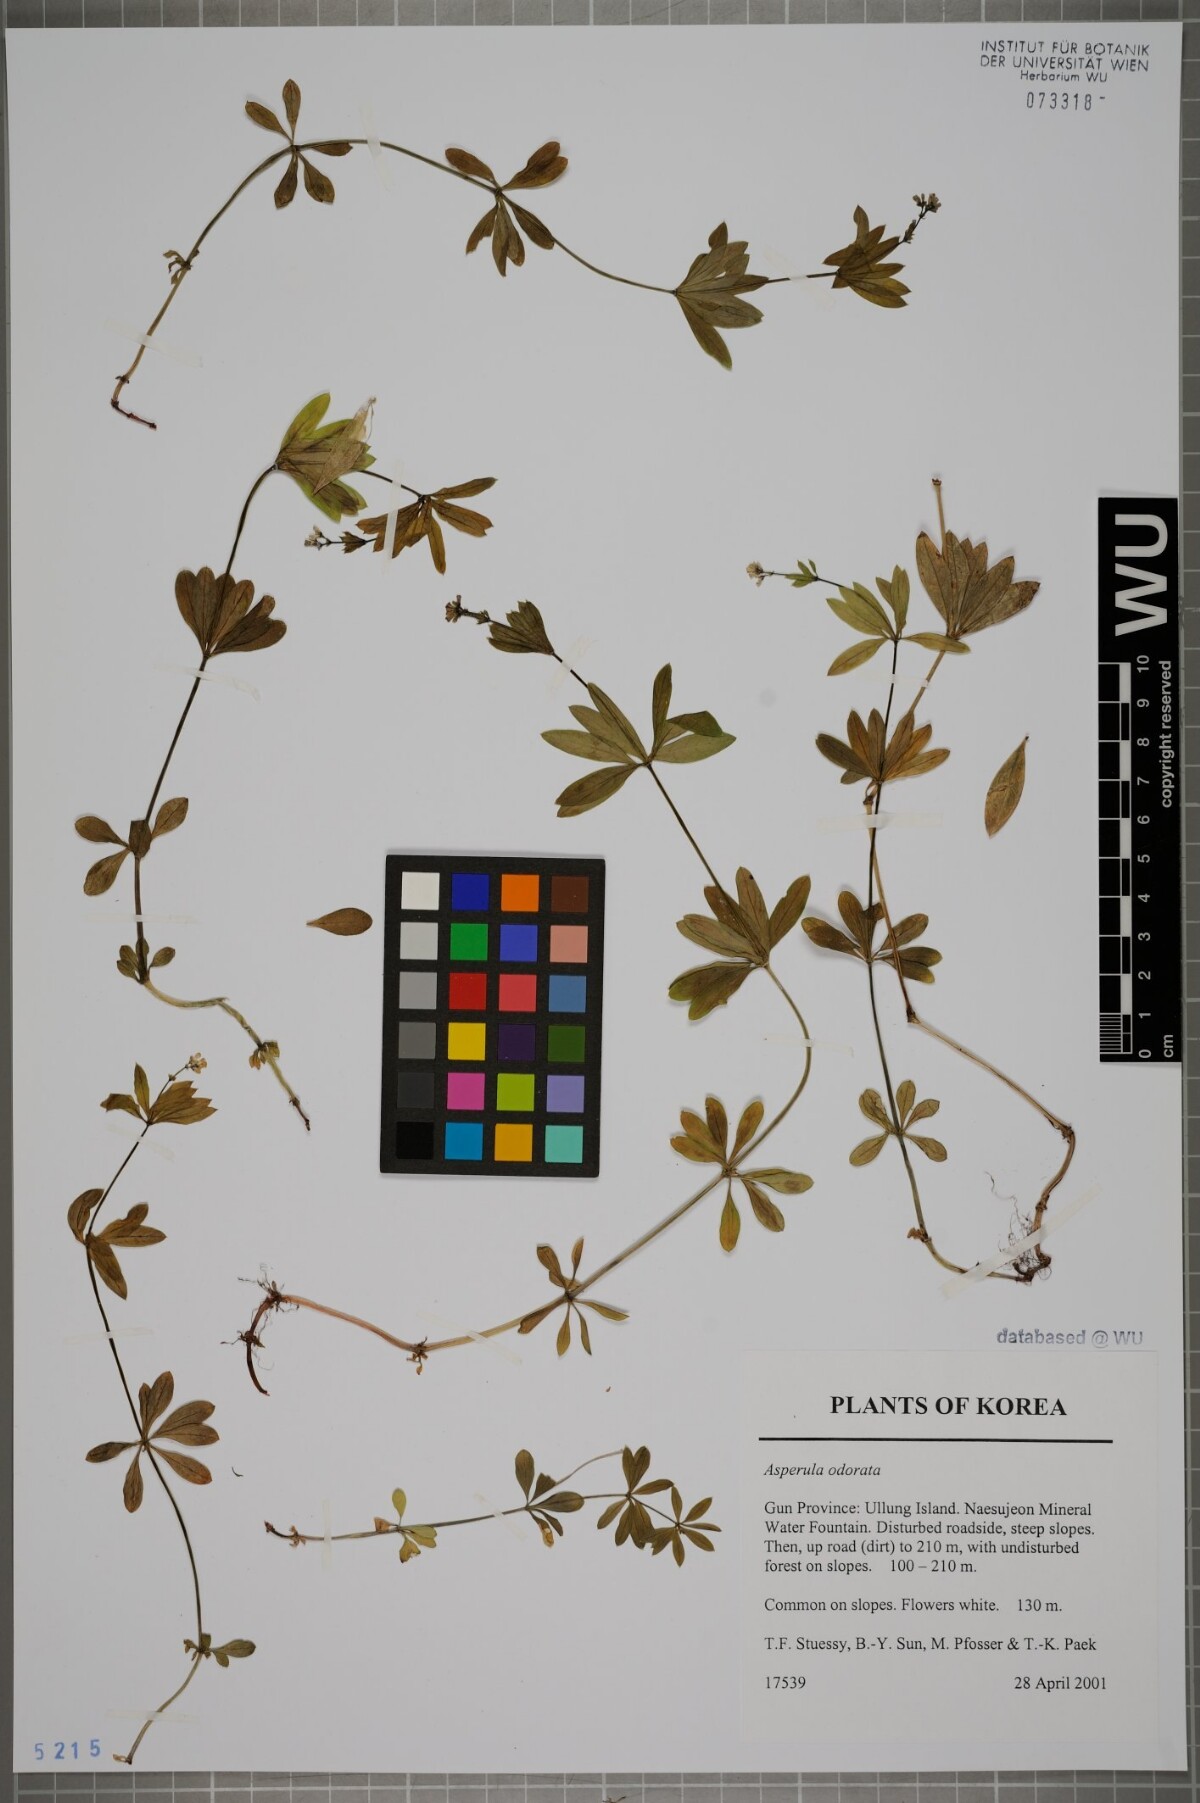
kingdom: Plantae
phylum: Tracheophyta
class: Magnoliopsida
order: Gentianales
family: Rubiaceae
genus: Galium
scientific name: Galium odoratum
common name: Sweet woodruff
